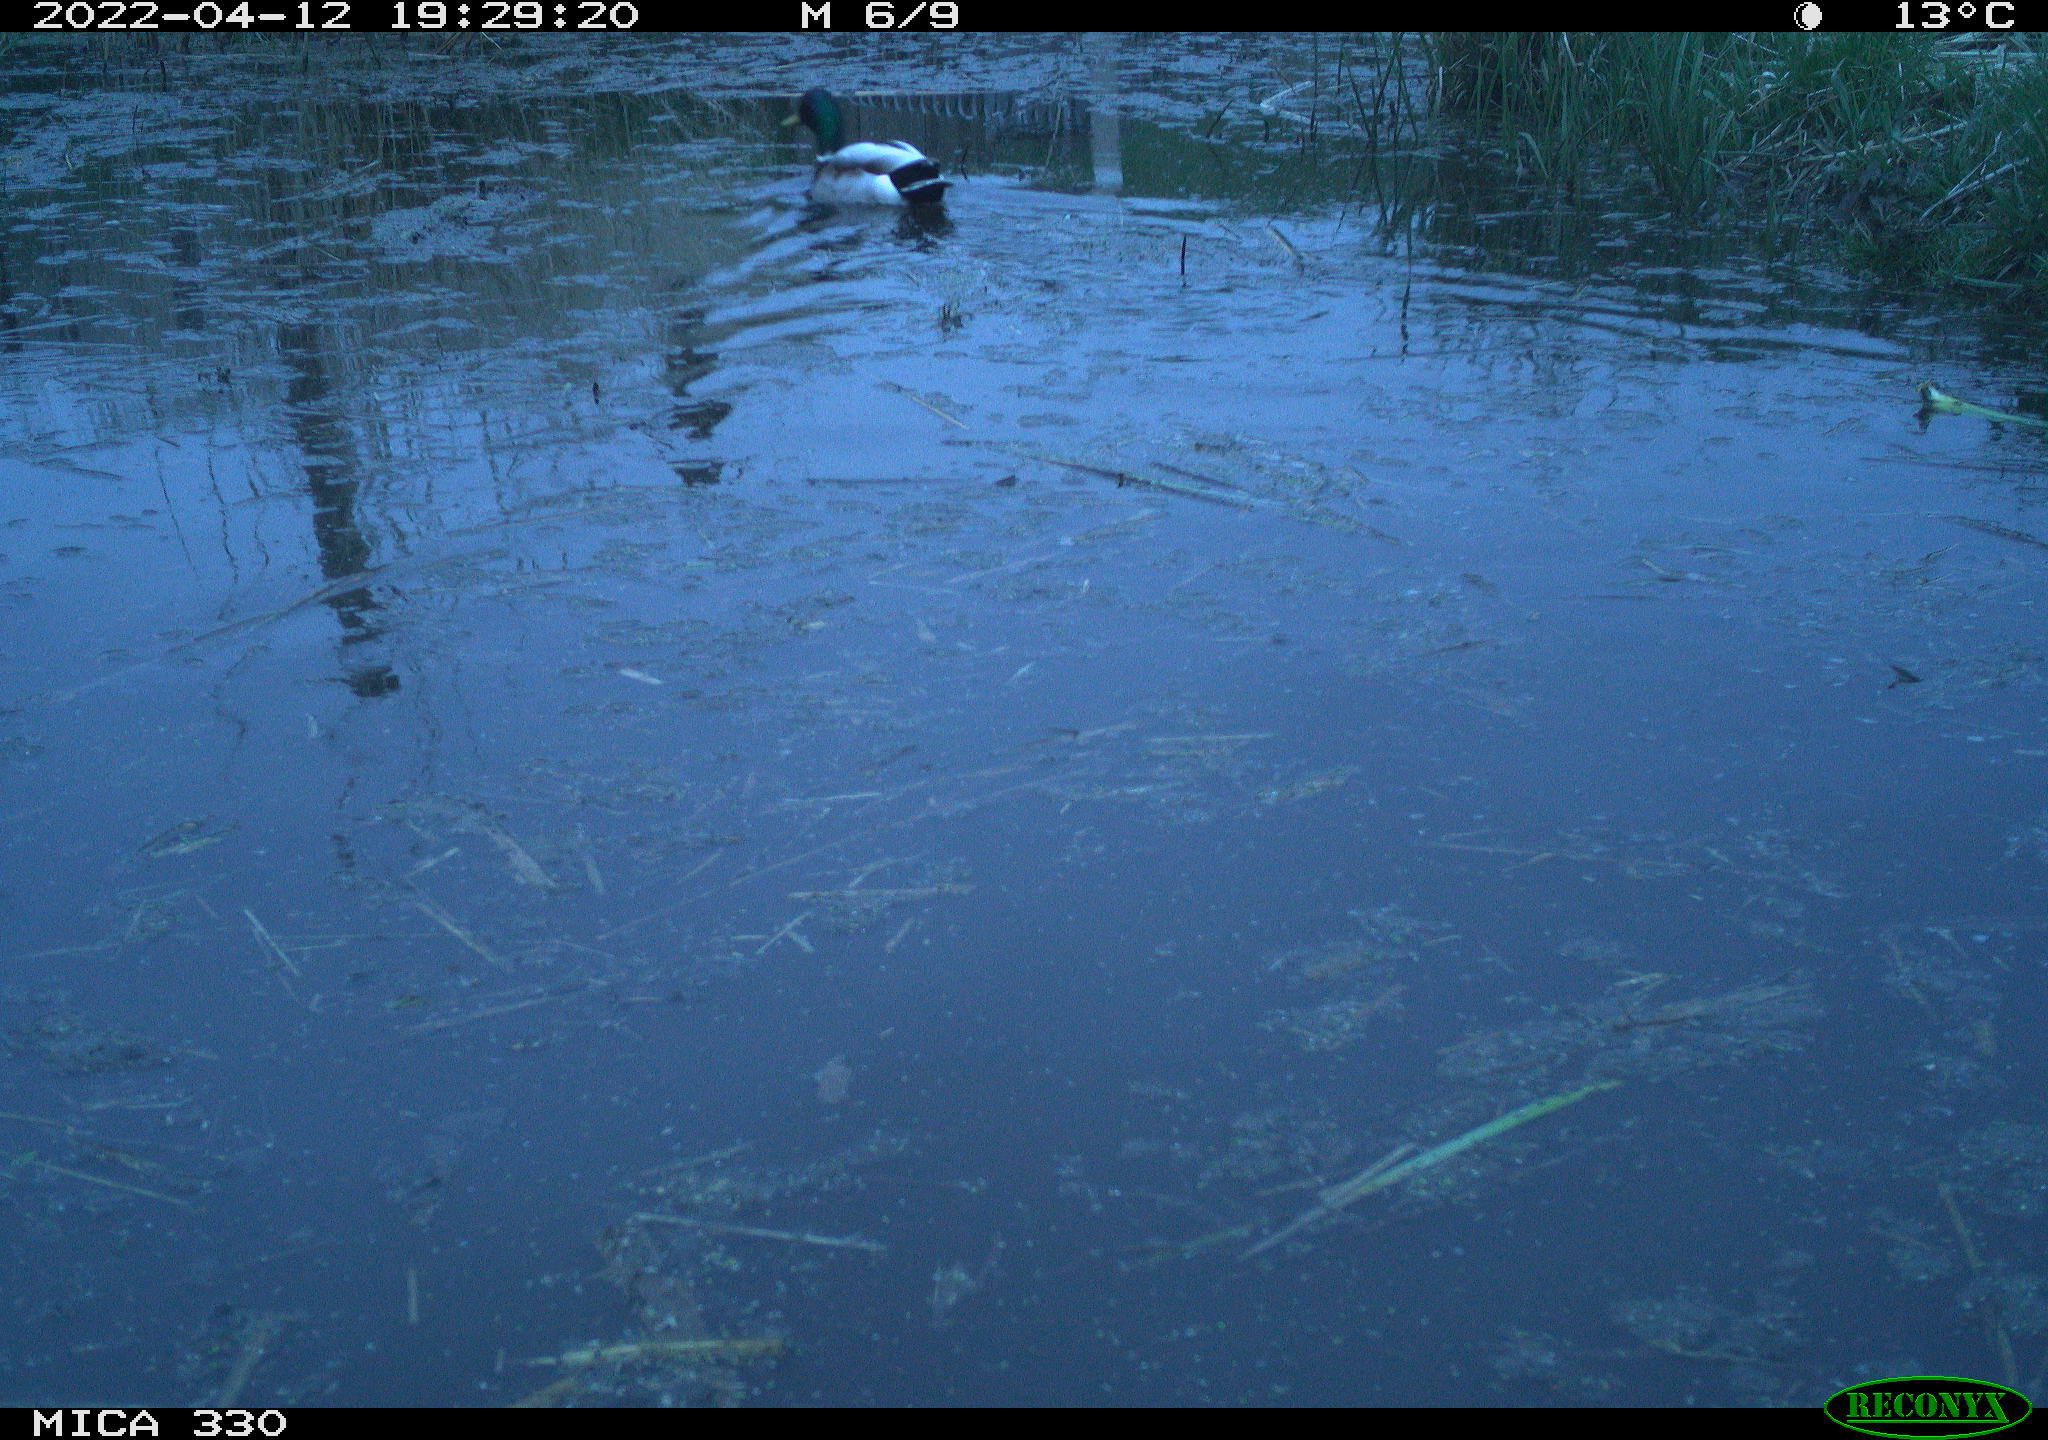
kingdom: Animalia
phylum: Chordata
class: Aves
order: Anseriformes
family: Anatidae
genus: Anas
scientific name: Anas platyrhynchos
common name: Mallard
